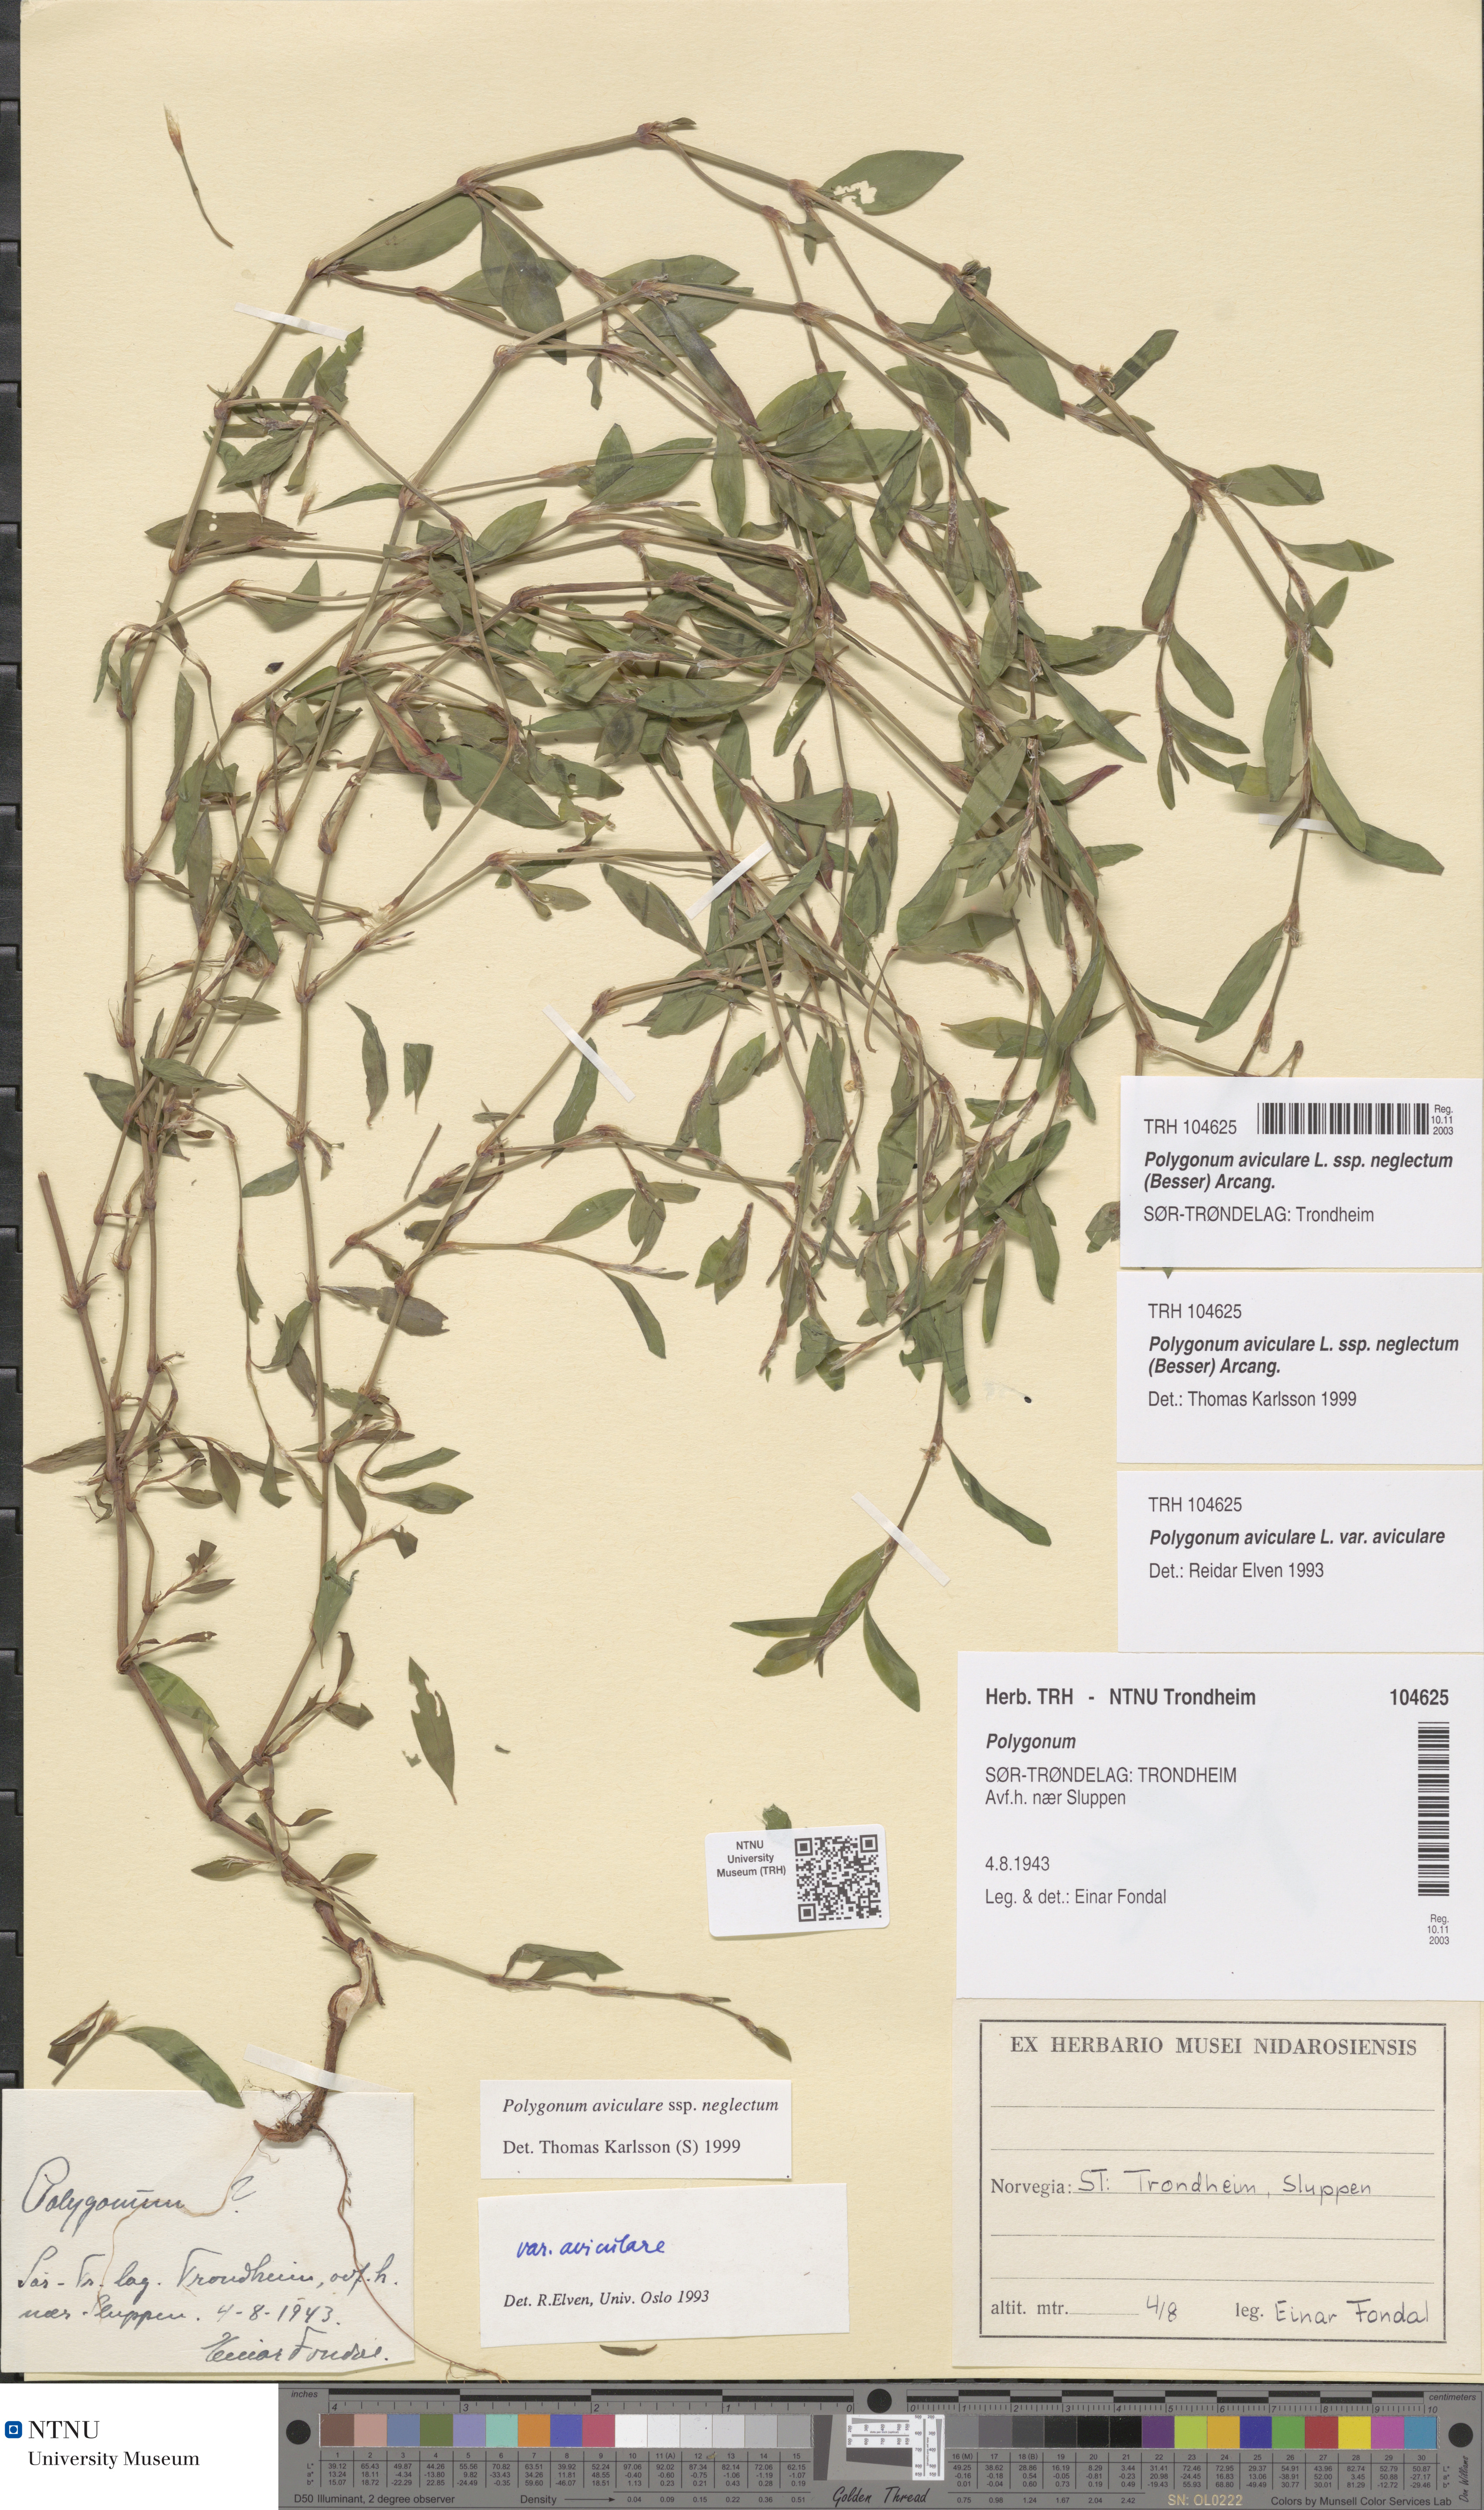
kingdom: Plantae
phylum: Tracheophyta
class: Magnoliopsida
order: Caryophyllales
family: Polygonaceae
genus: Polygonum
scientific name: Polygonum aviculare
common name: Prostrate knotweed
